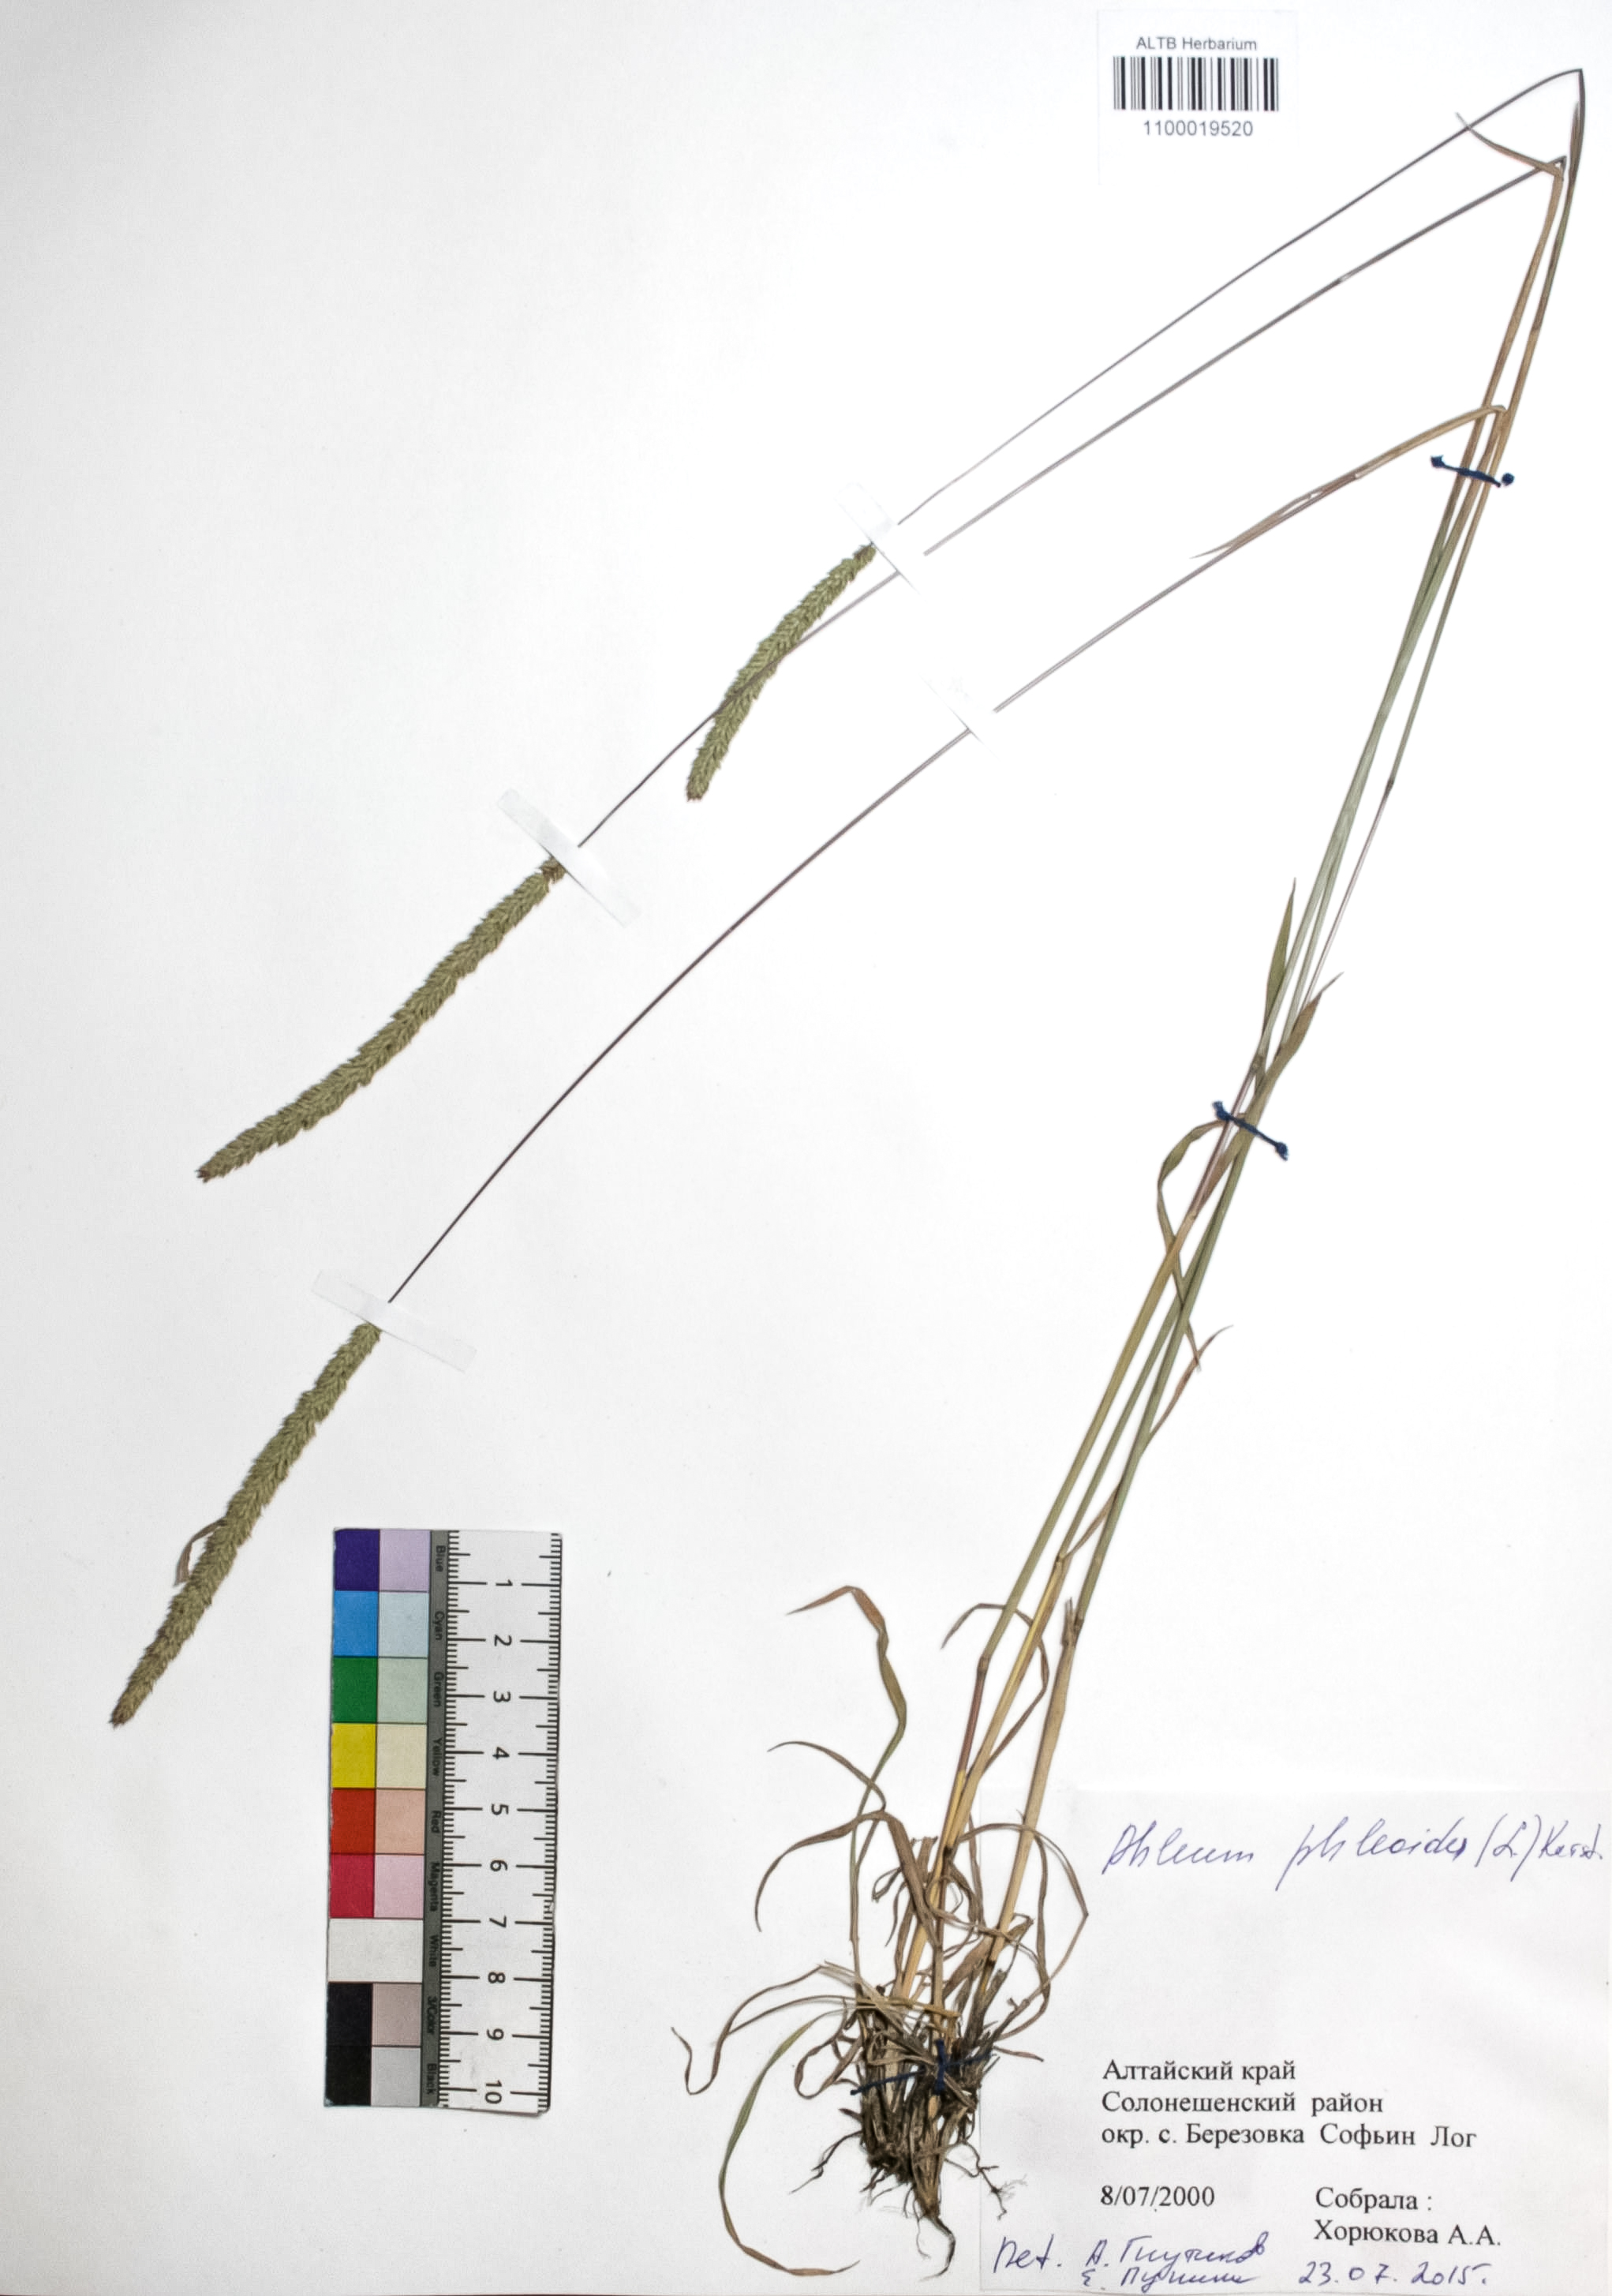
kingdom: Plantae
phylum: Tracheophyta
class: Liliopsida
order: Poales
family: Poaceae
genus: Phleum
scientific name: Phleum phleoides
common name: Purple-stem cat's-tail
